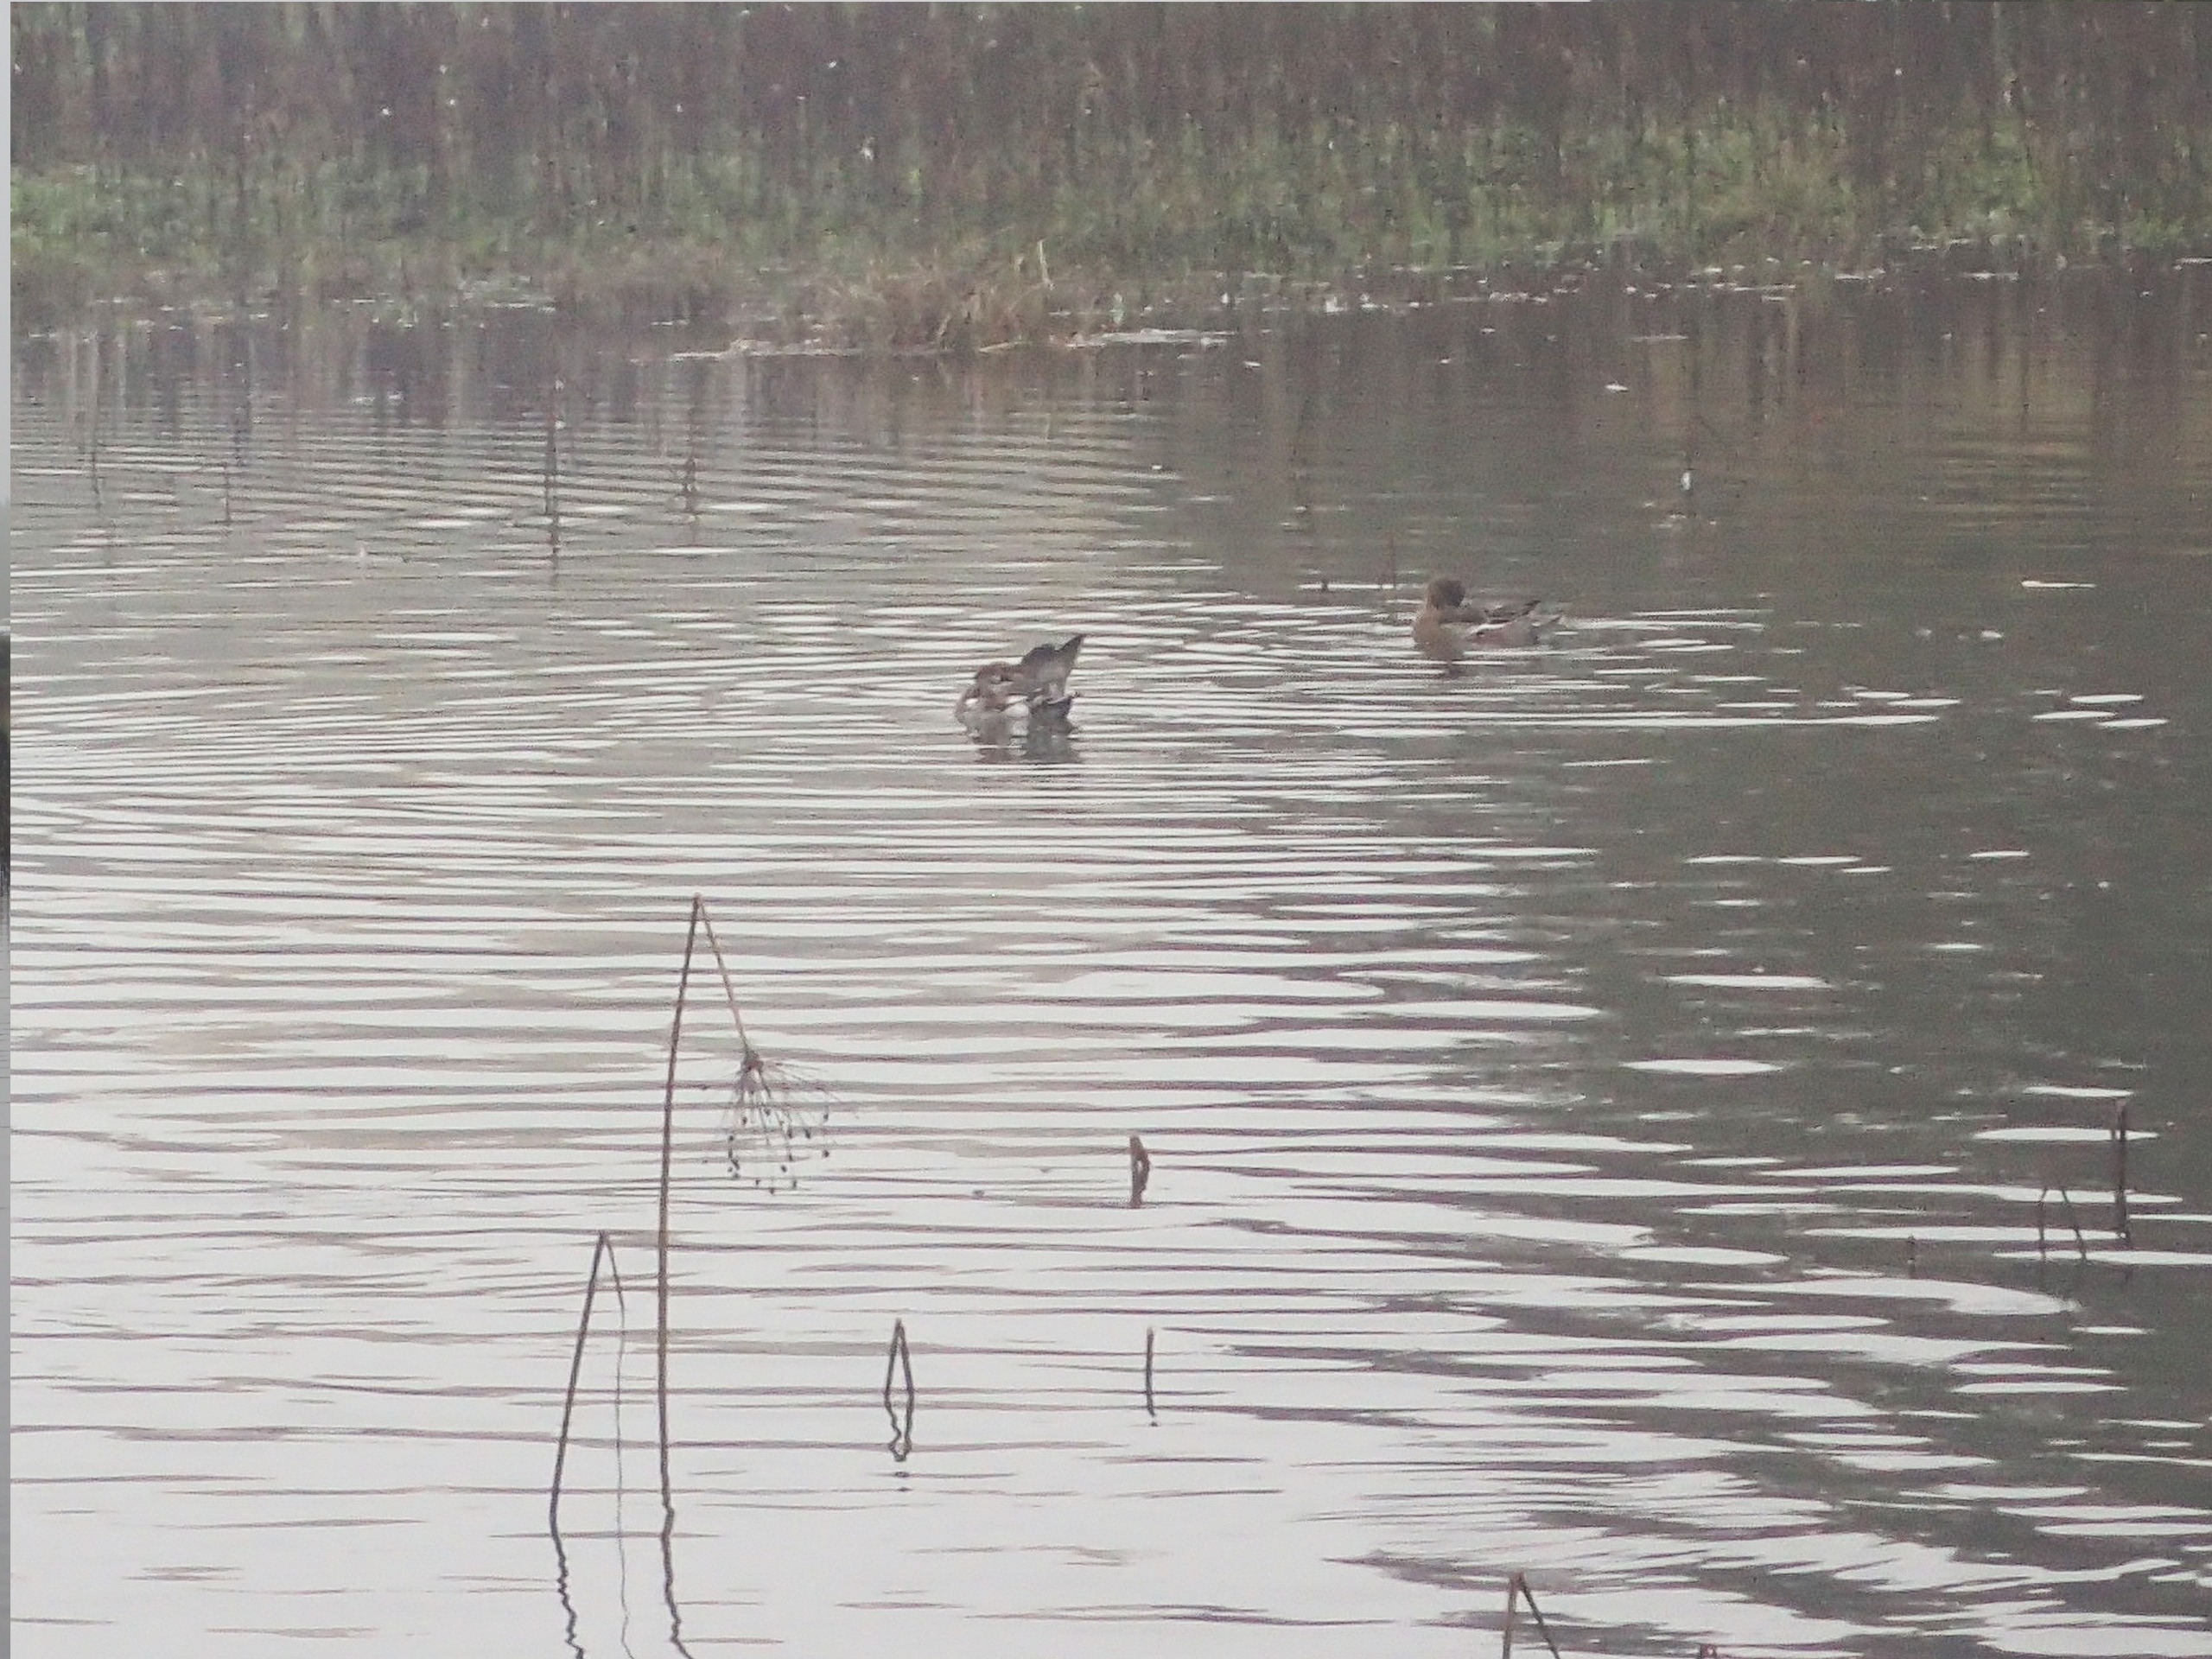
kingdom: Animalia
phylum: Chordata
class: Aves
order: Anseriformes
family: Anatidae
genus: Mareca
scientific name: Mareca penelope
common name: Pibeand
